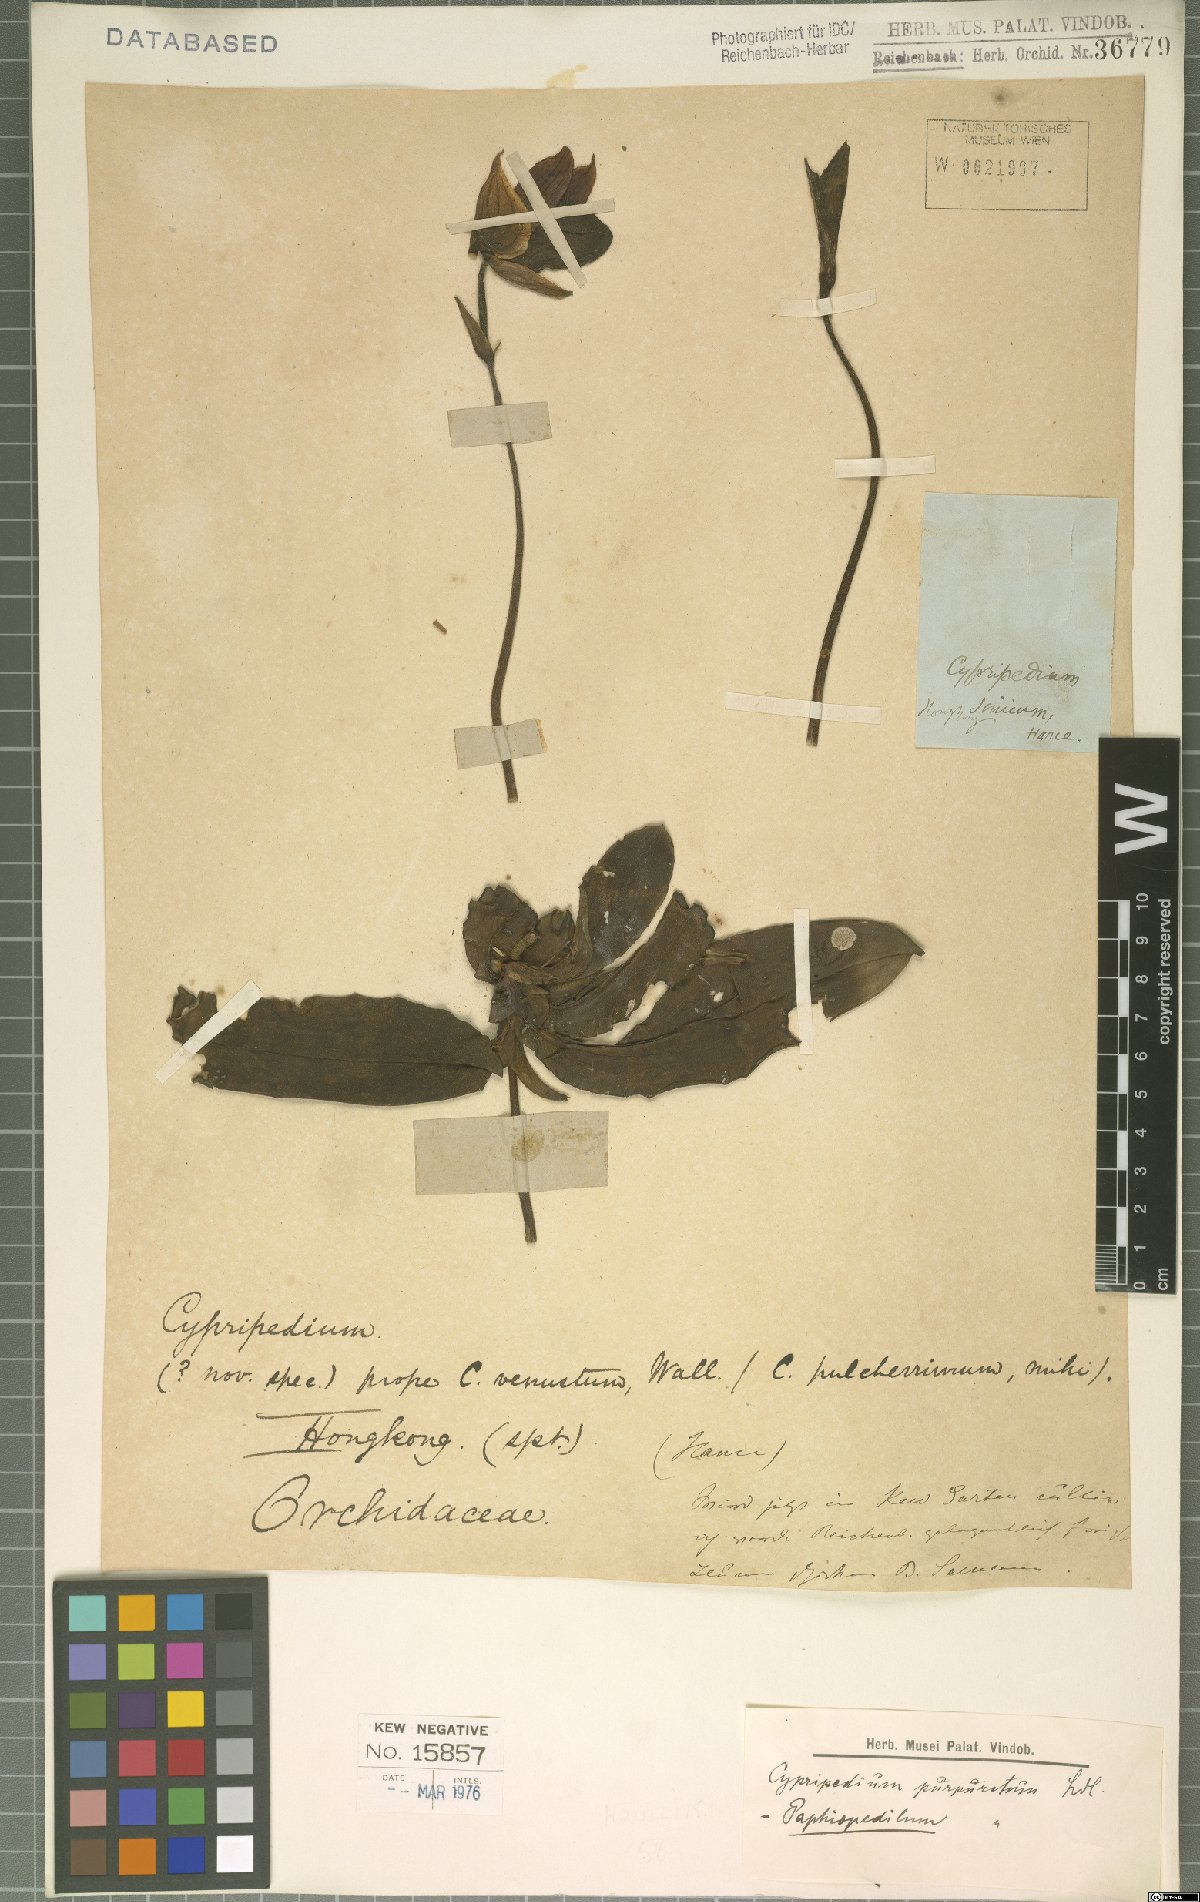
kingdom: Plantae
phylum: Tracheophyta
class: Liliopsida
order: Asparagales
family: Orchidaceae
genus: Paphiopedilum
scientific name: Paphiopedilum purpuratum
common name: Purple paphiopedilum
